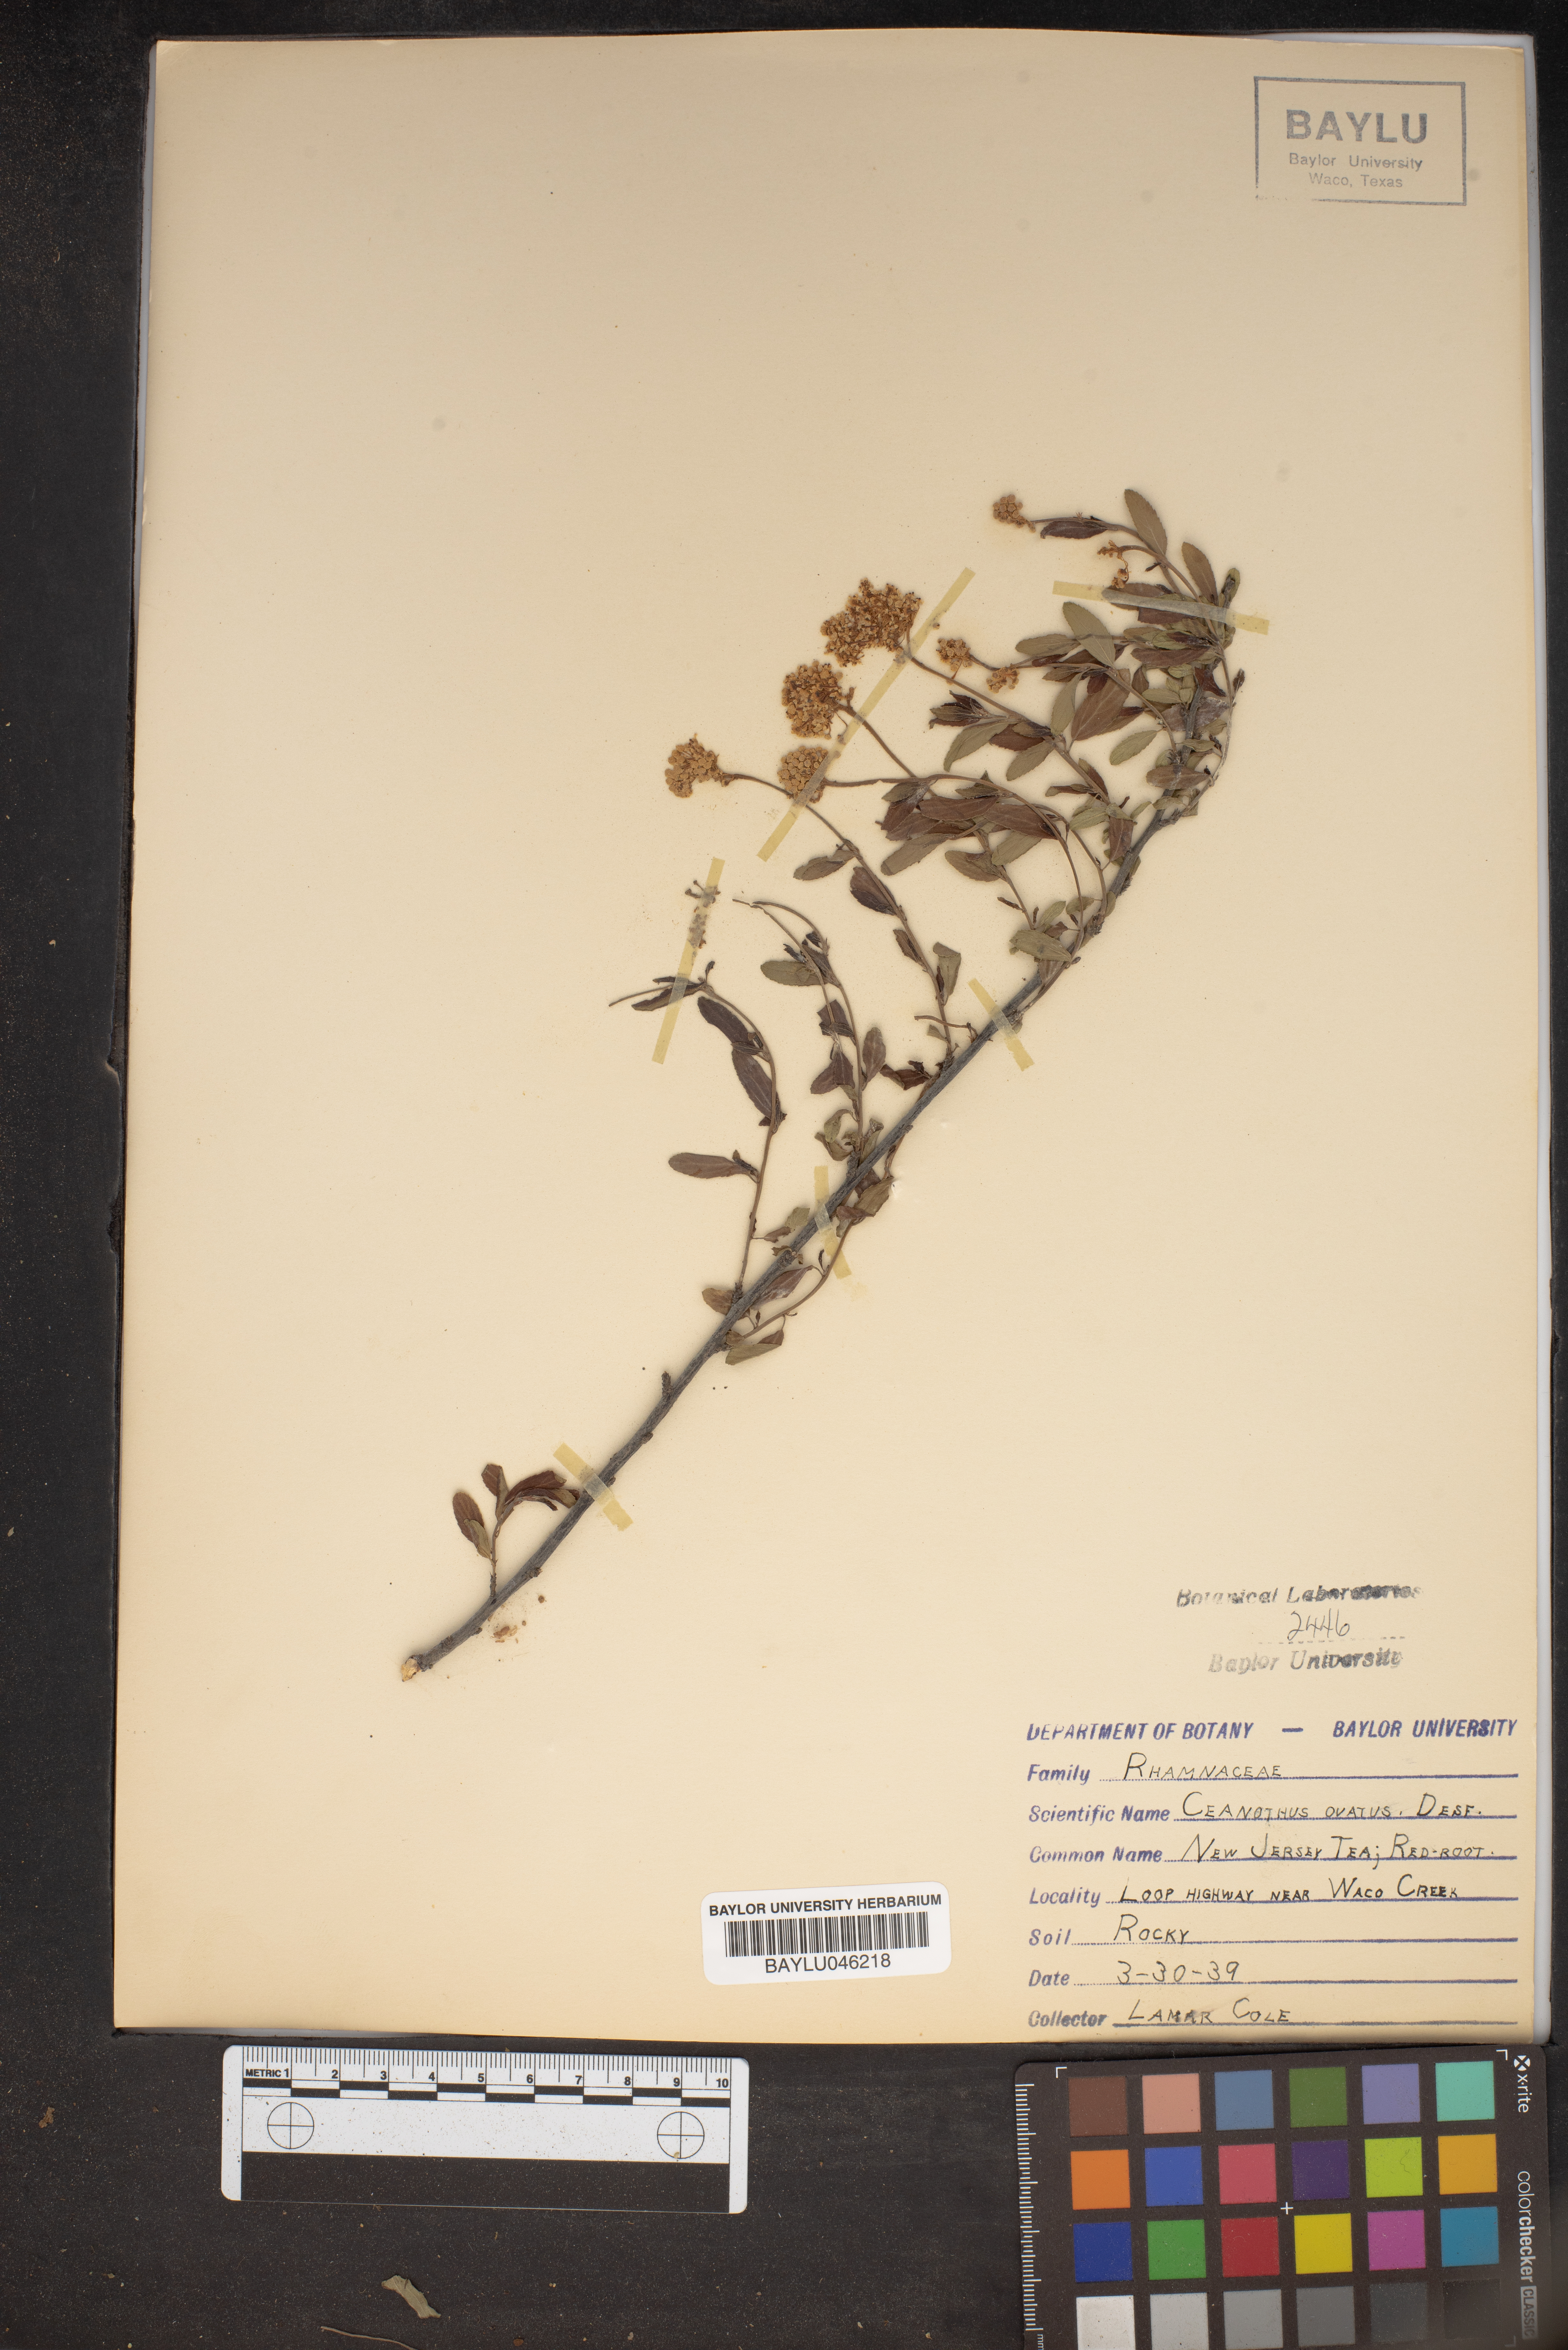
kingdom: Plantae
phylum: Tracheophyta
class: Magnoliopsida
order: Rosales
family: Rhamnaceae
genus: Ceanothus
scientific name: Ceanothus herbaceus
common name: Inland ceanothus
